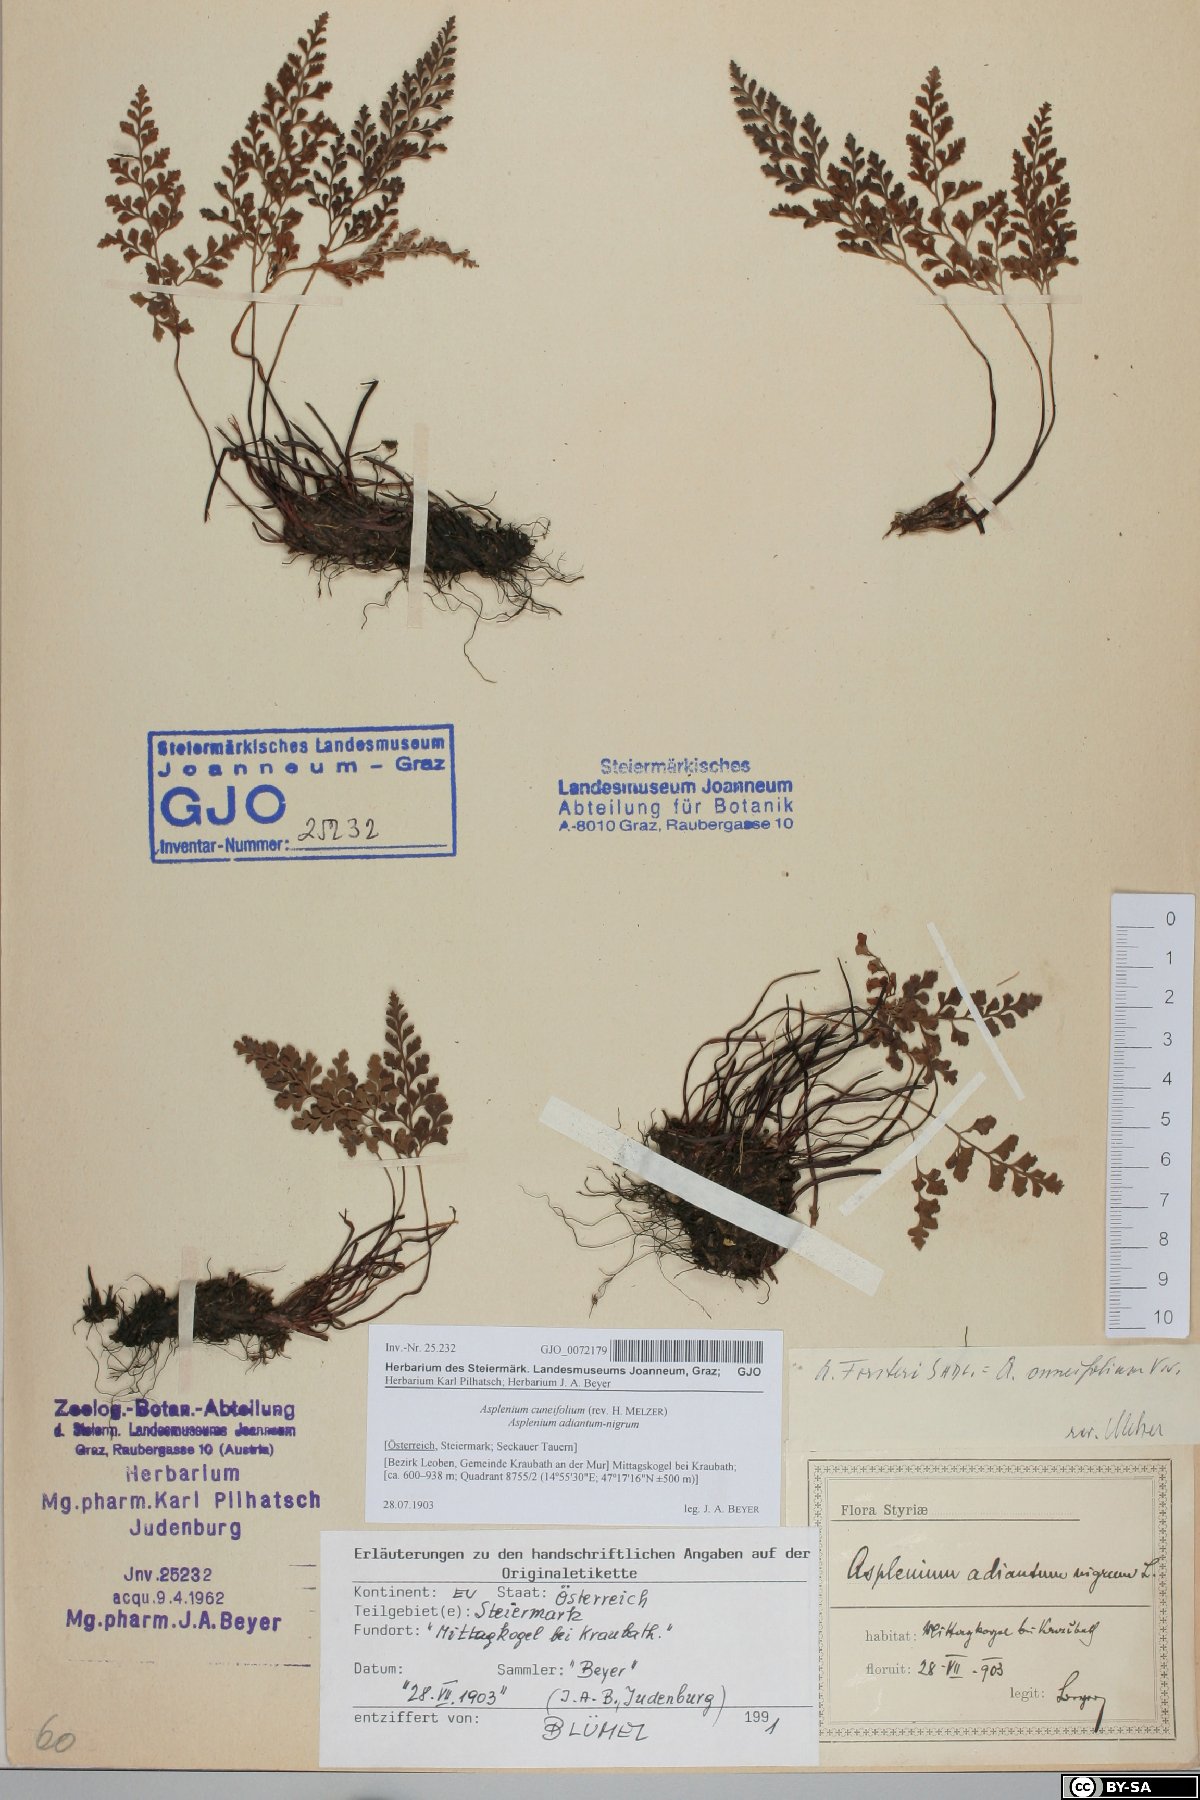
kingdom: Plantae
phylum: Tracheophyta
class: Polypodiopsida
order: Polypodiales
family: Aspleniaceae
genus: Asplenium
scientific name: Asplenium cuneifolium
